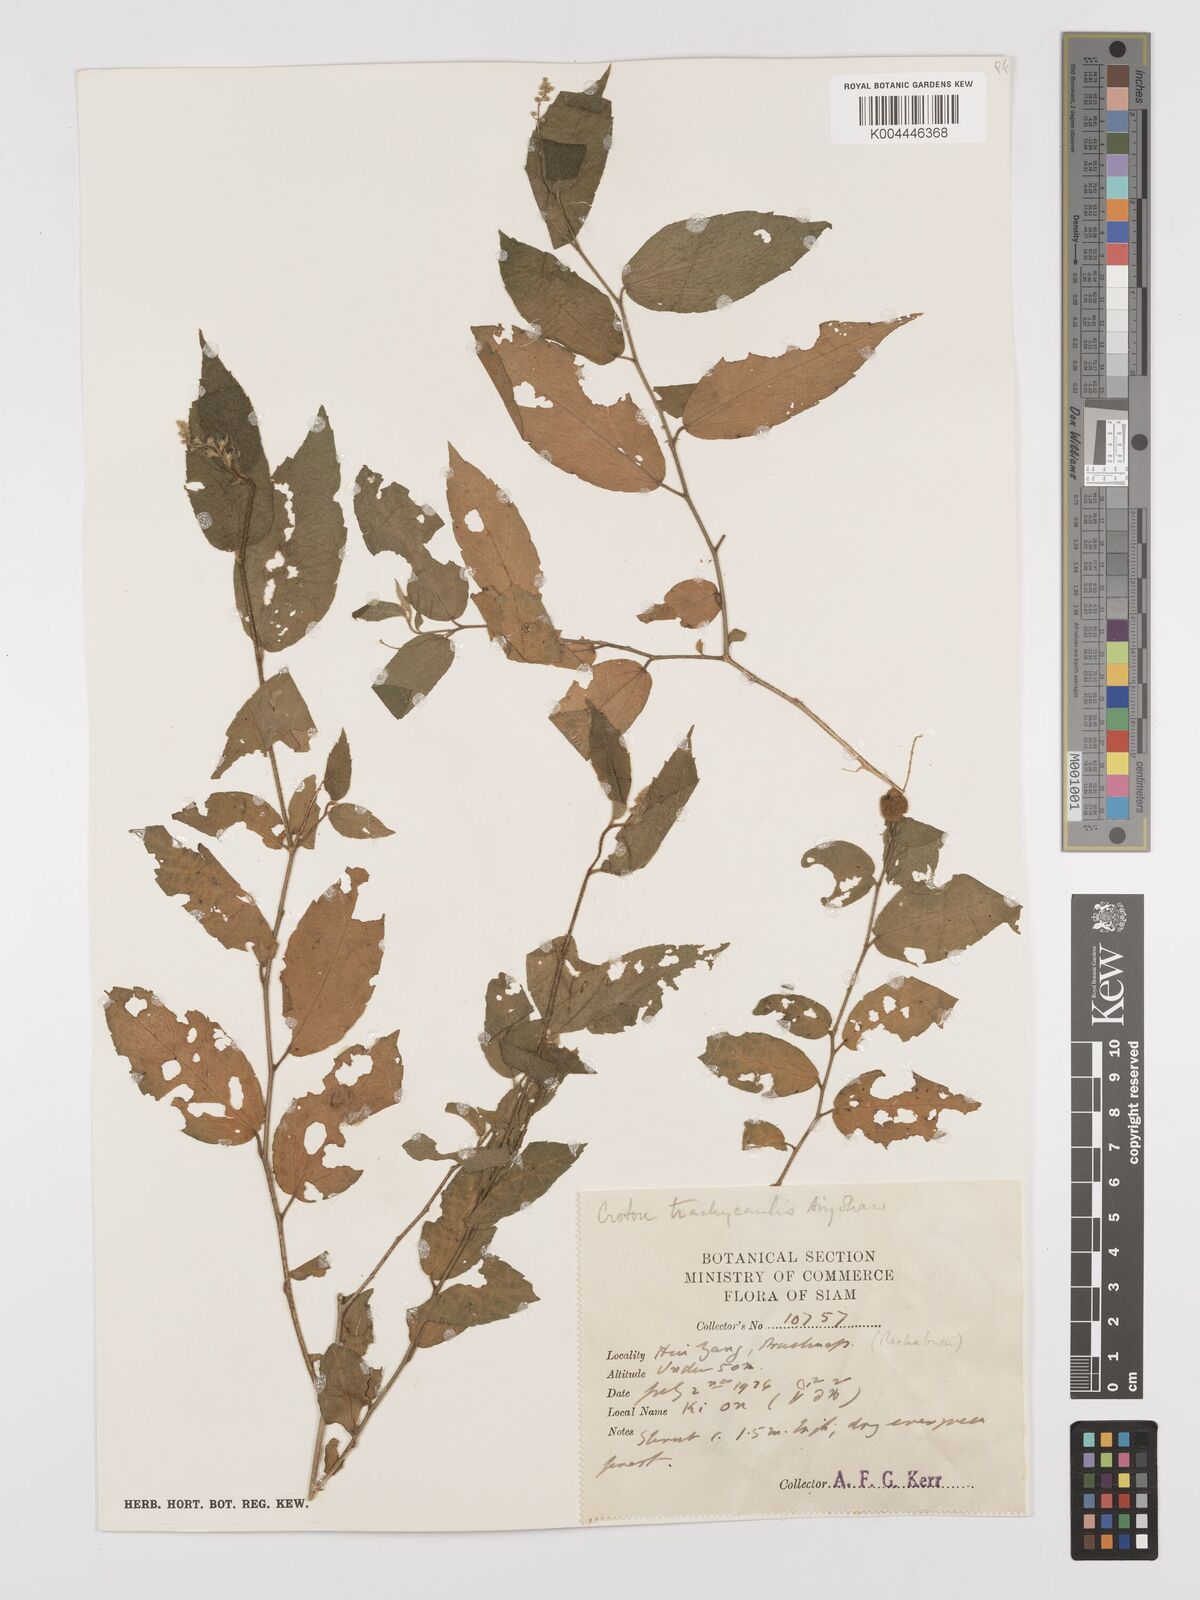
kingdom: Plantae
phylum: Tracheophyta
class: Magnoliopsida
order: Malpighiales
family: Euphorbiaceae
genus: Croton
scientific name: Croton lachnocarpus
